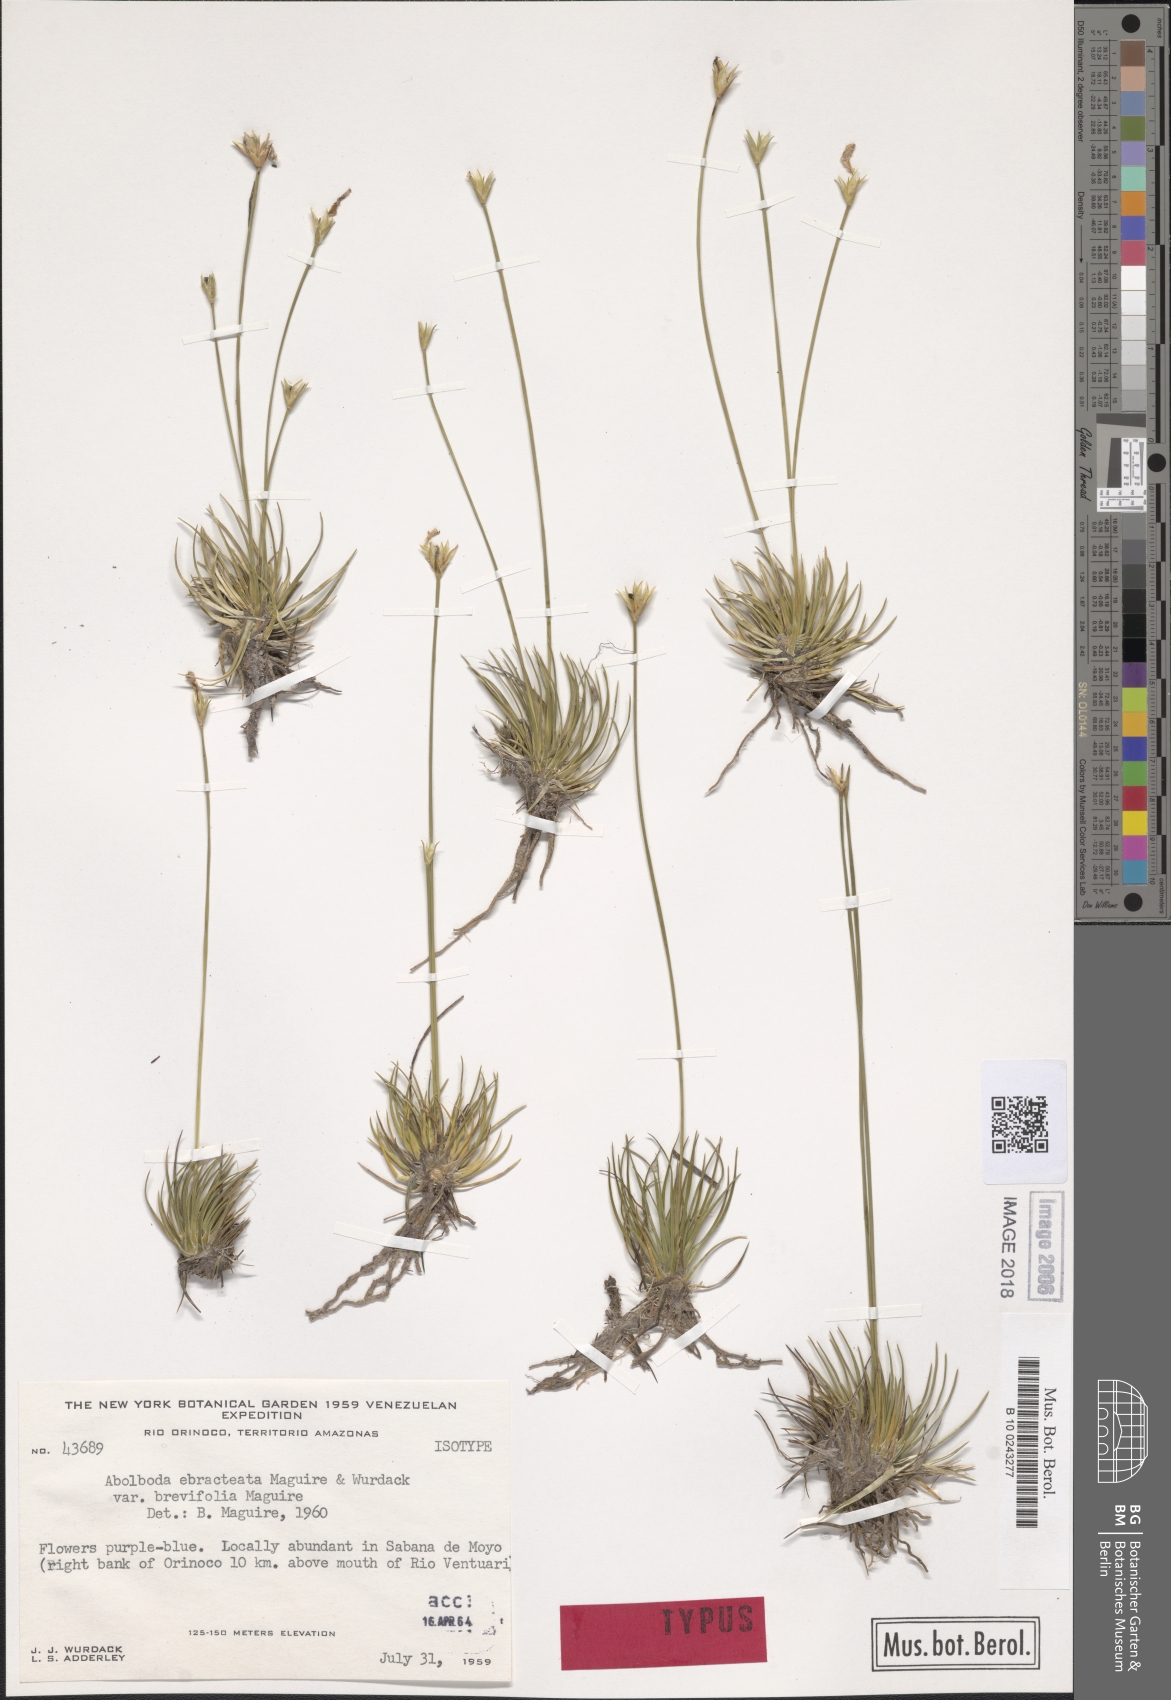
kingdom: Plantae
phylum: Tracheophyta
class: Liliopsida
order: Poales
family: Xyridaceae
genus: Abolboda
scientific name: Abolboda ebracteata
